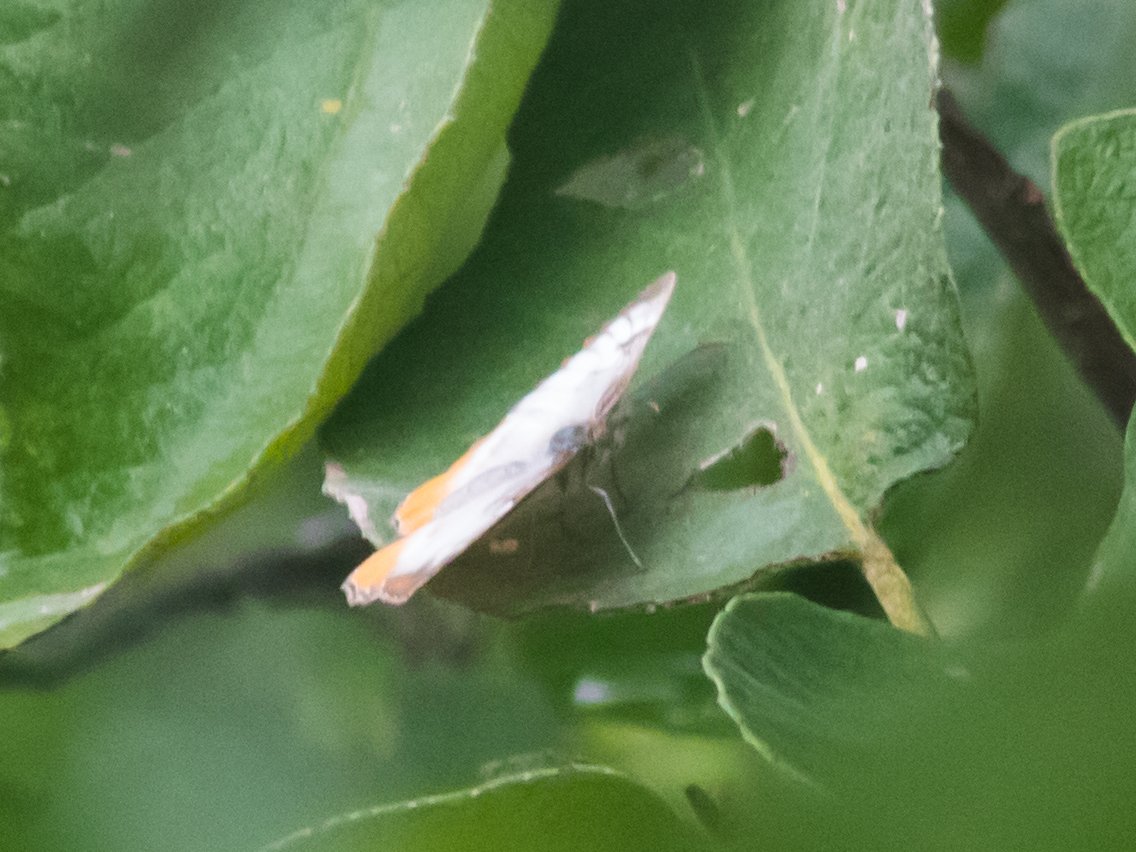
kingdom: Animalia
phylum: Arthropoda
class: Insecta
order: Lepidoptera
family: Nymphalidae
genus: Mestra
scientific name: Mestra amymone
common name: Common Mestra
